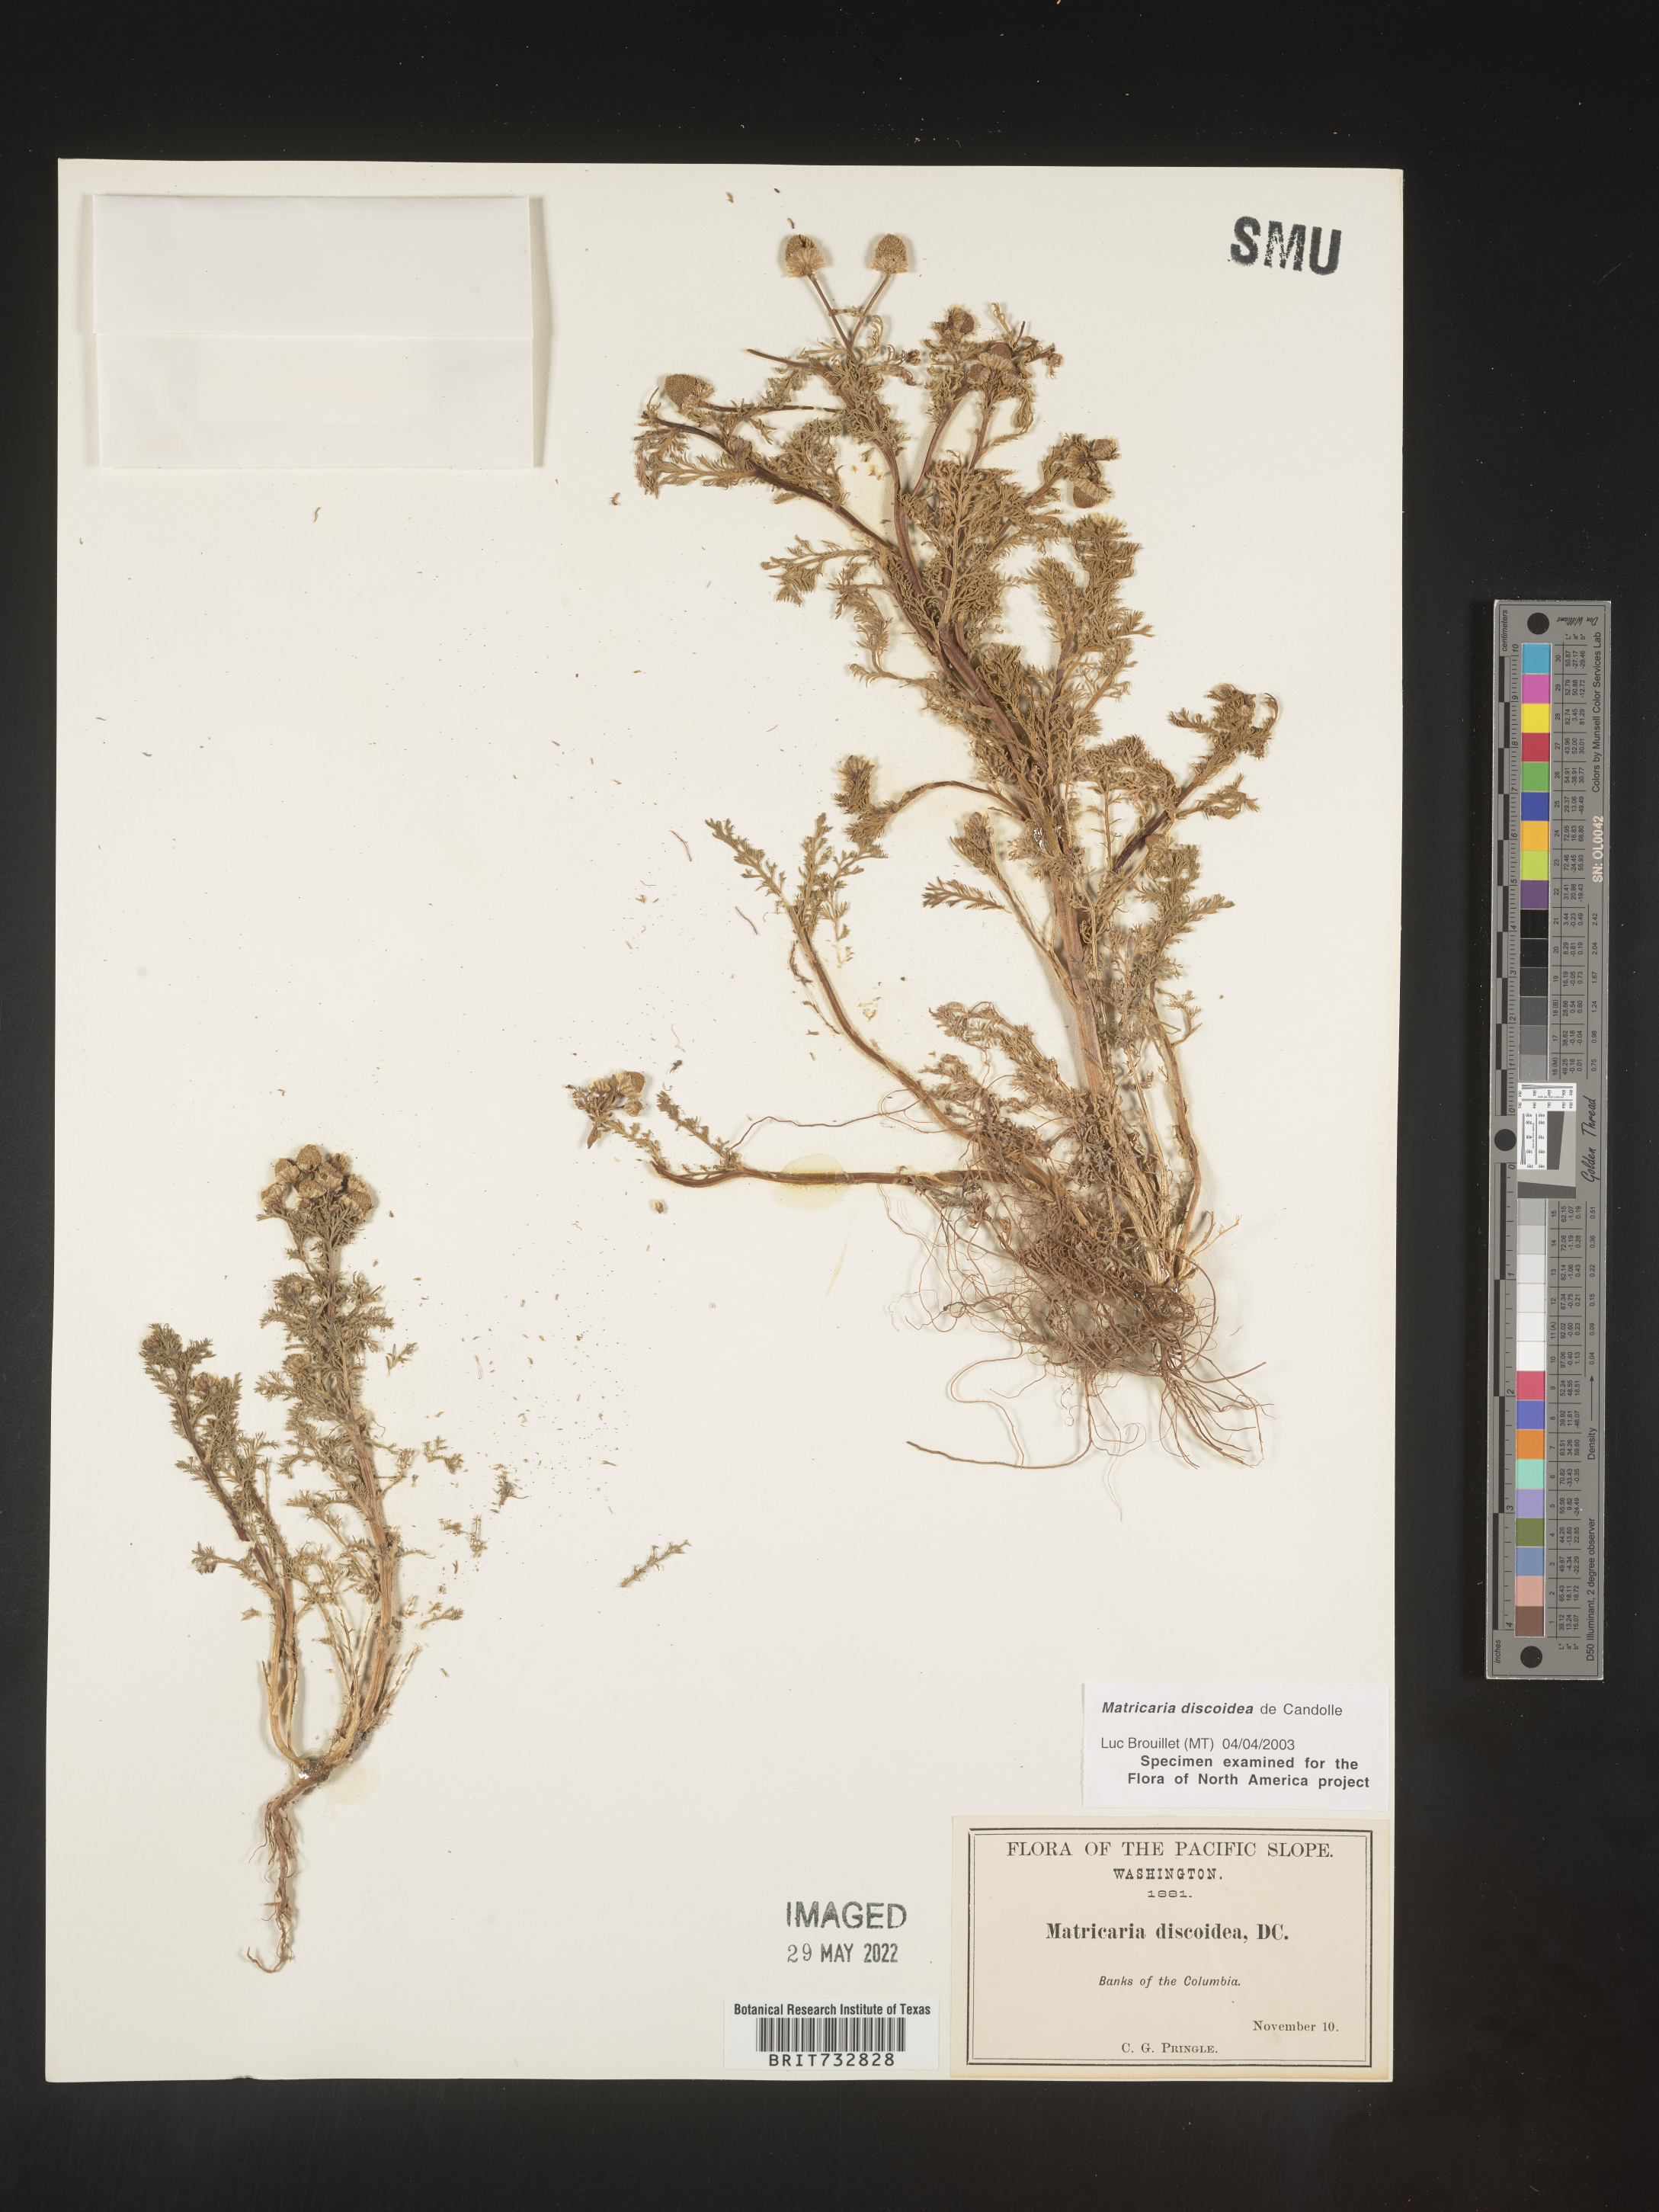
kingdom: Plantae
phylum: Tracheophyta
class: Magnoliopsida
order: Asterales
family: Asteraceae
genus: Matricaria
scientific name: Matricaria discoidea
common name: Disc mayweed
